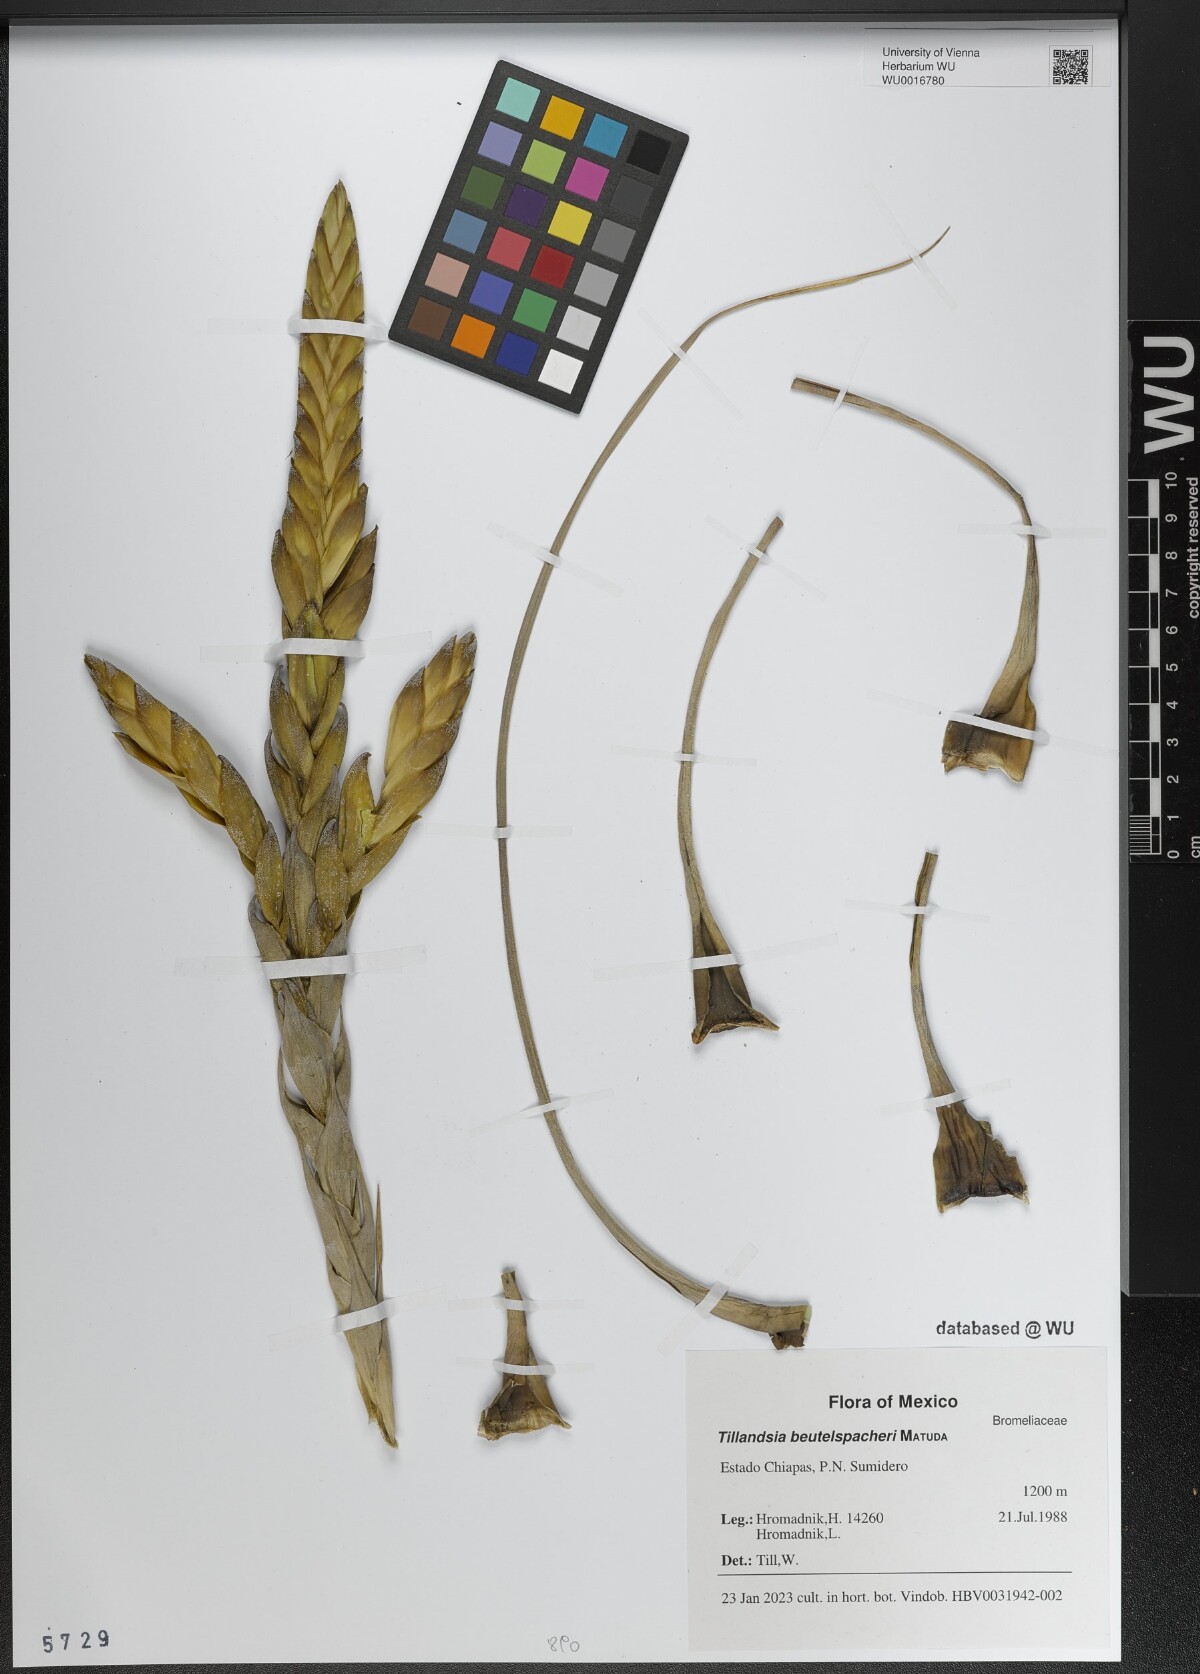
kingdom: Plantae
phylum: Tracheophyta
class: Liliopsida
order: Poales
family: Bromeliaceae
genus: Tillandsia
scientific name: Tillandsia fasciculata
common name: Giant airplant
